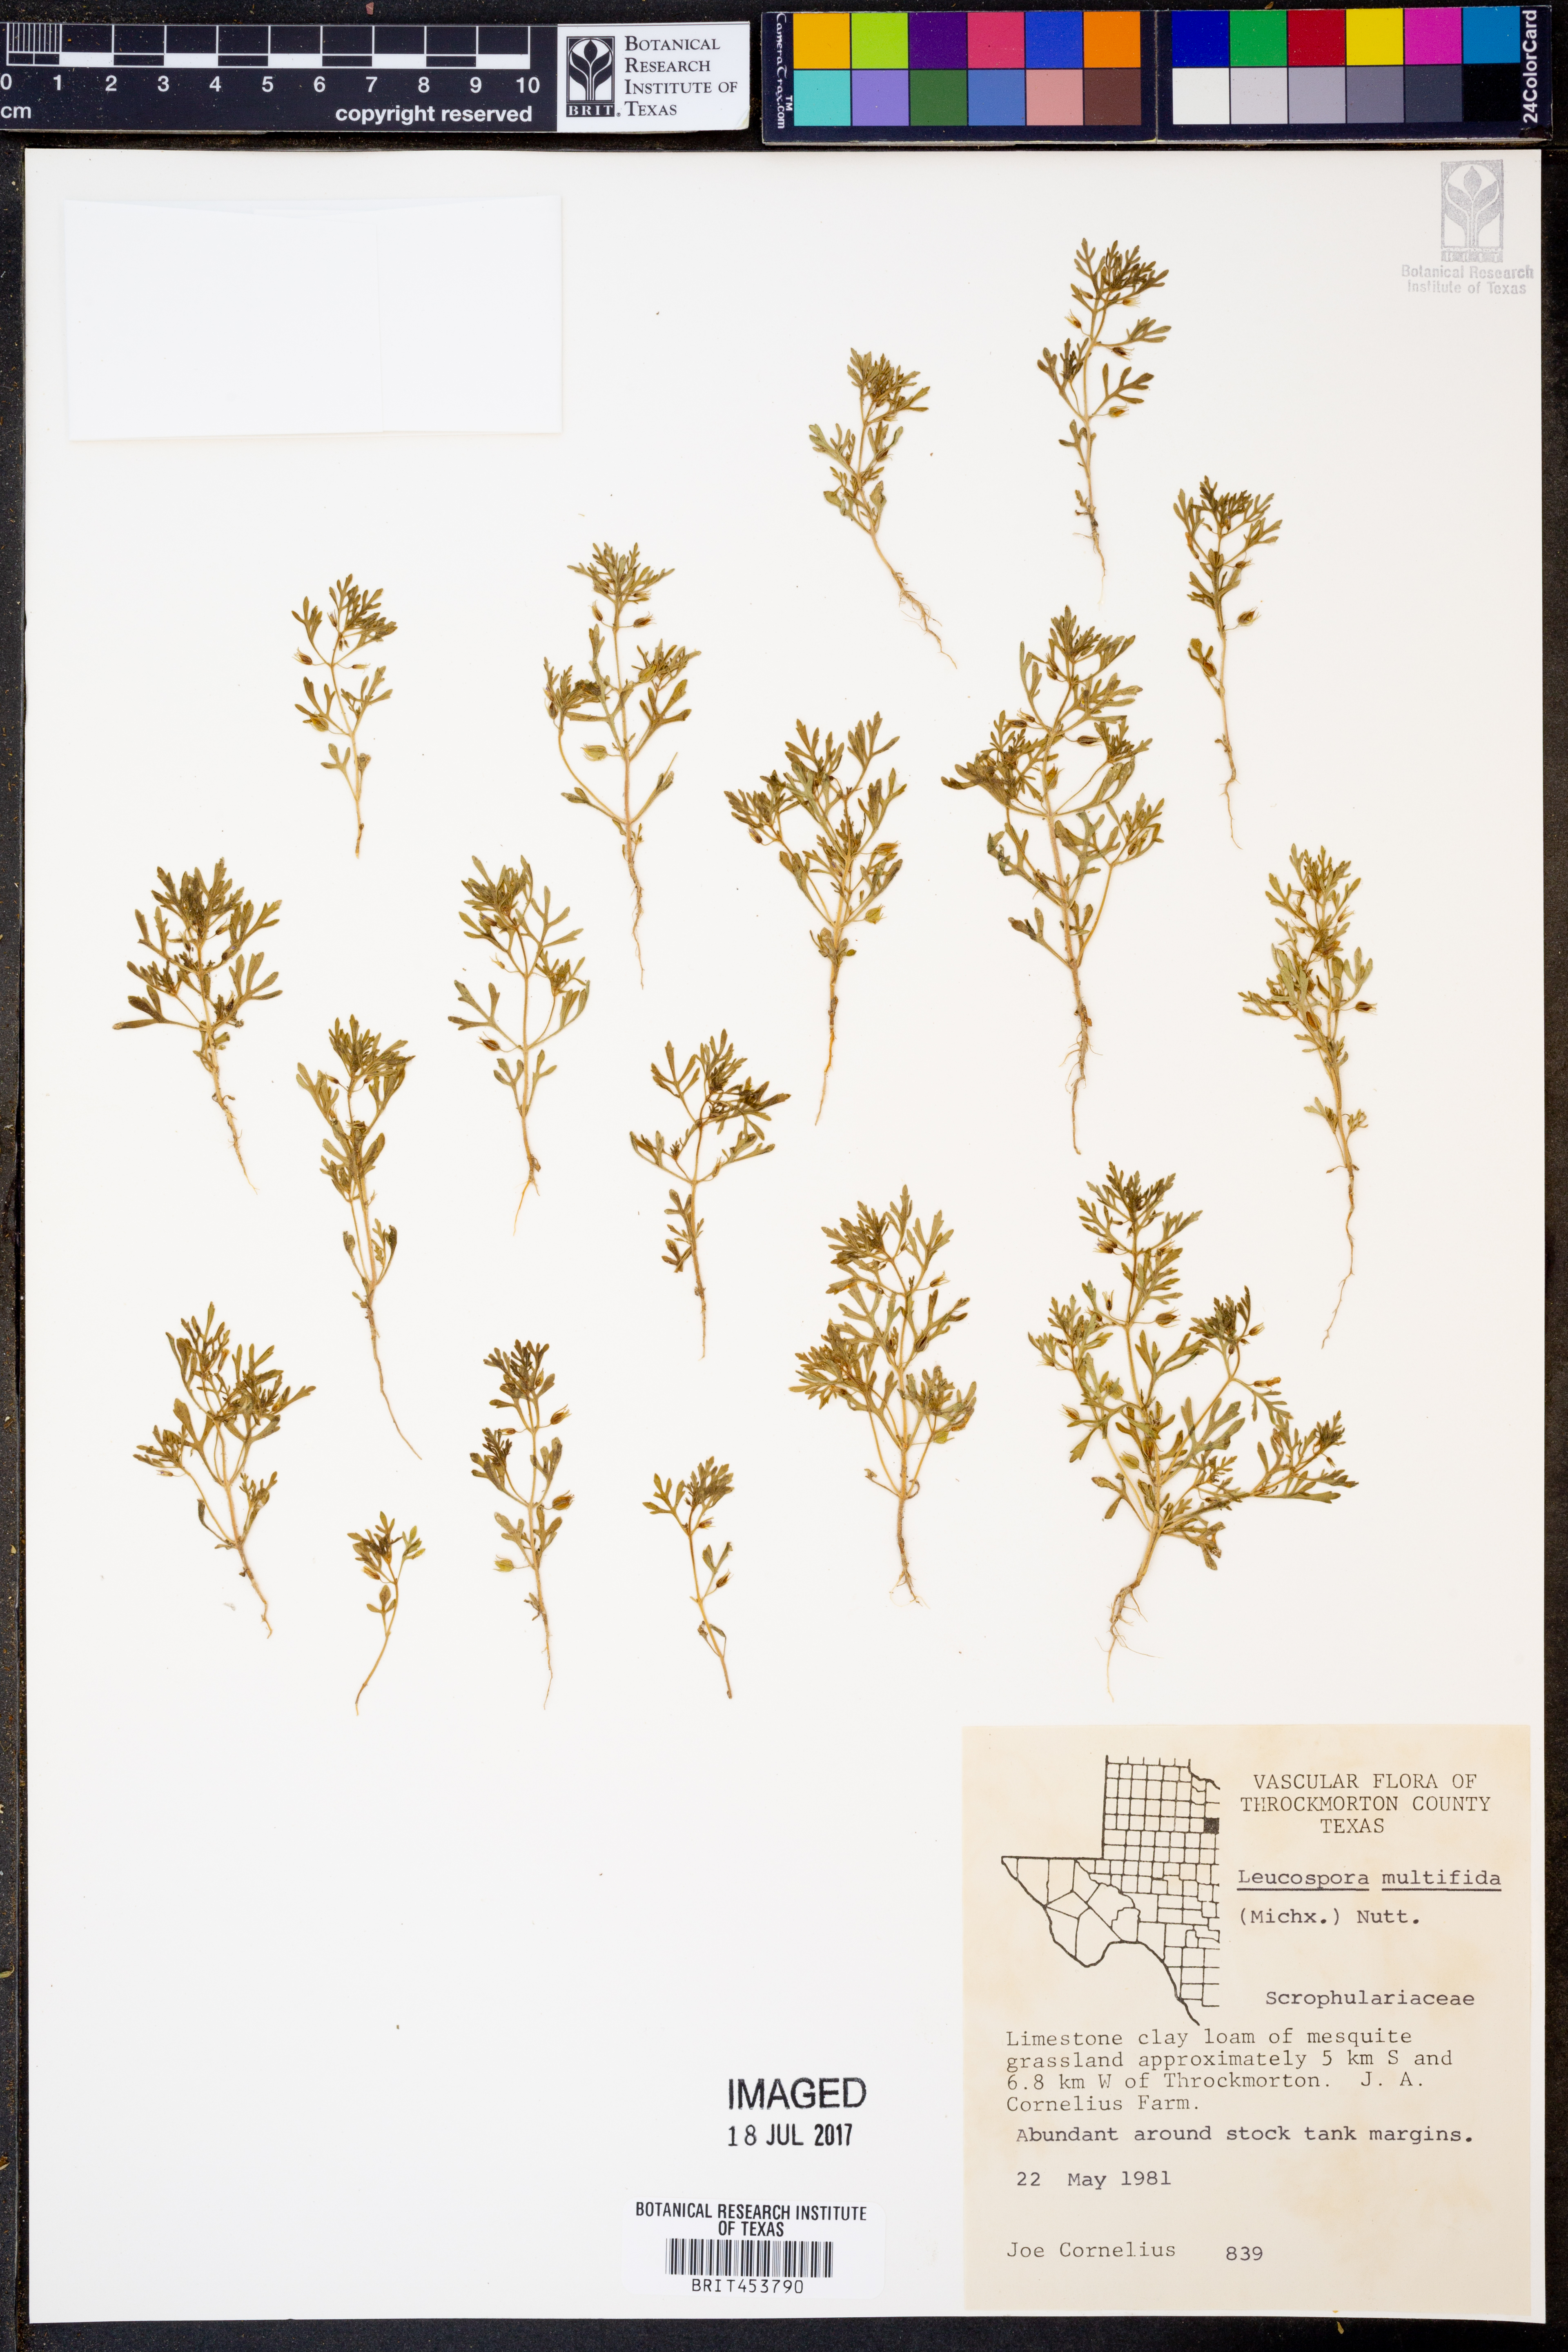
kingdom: Plantae
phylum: Tracheophyta
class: Magnoliopsida
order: Lamiales
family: Plantaginaceae
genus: Leucospora
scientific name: Leucospora multifida
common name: Narrow-leaf paleseed
